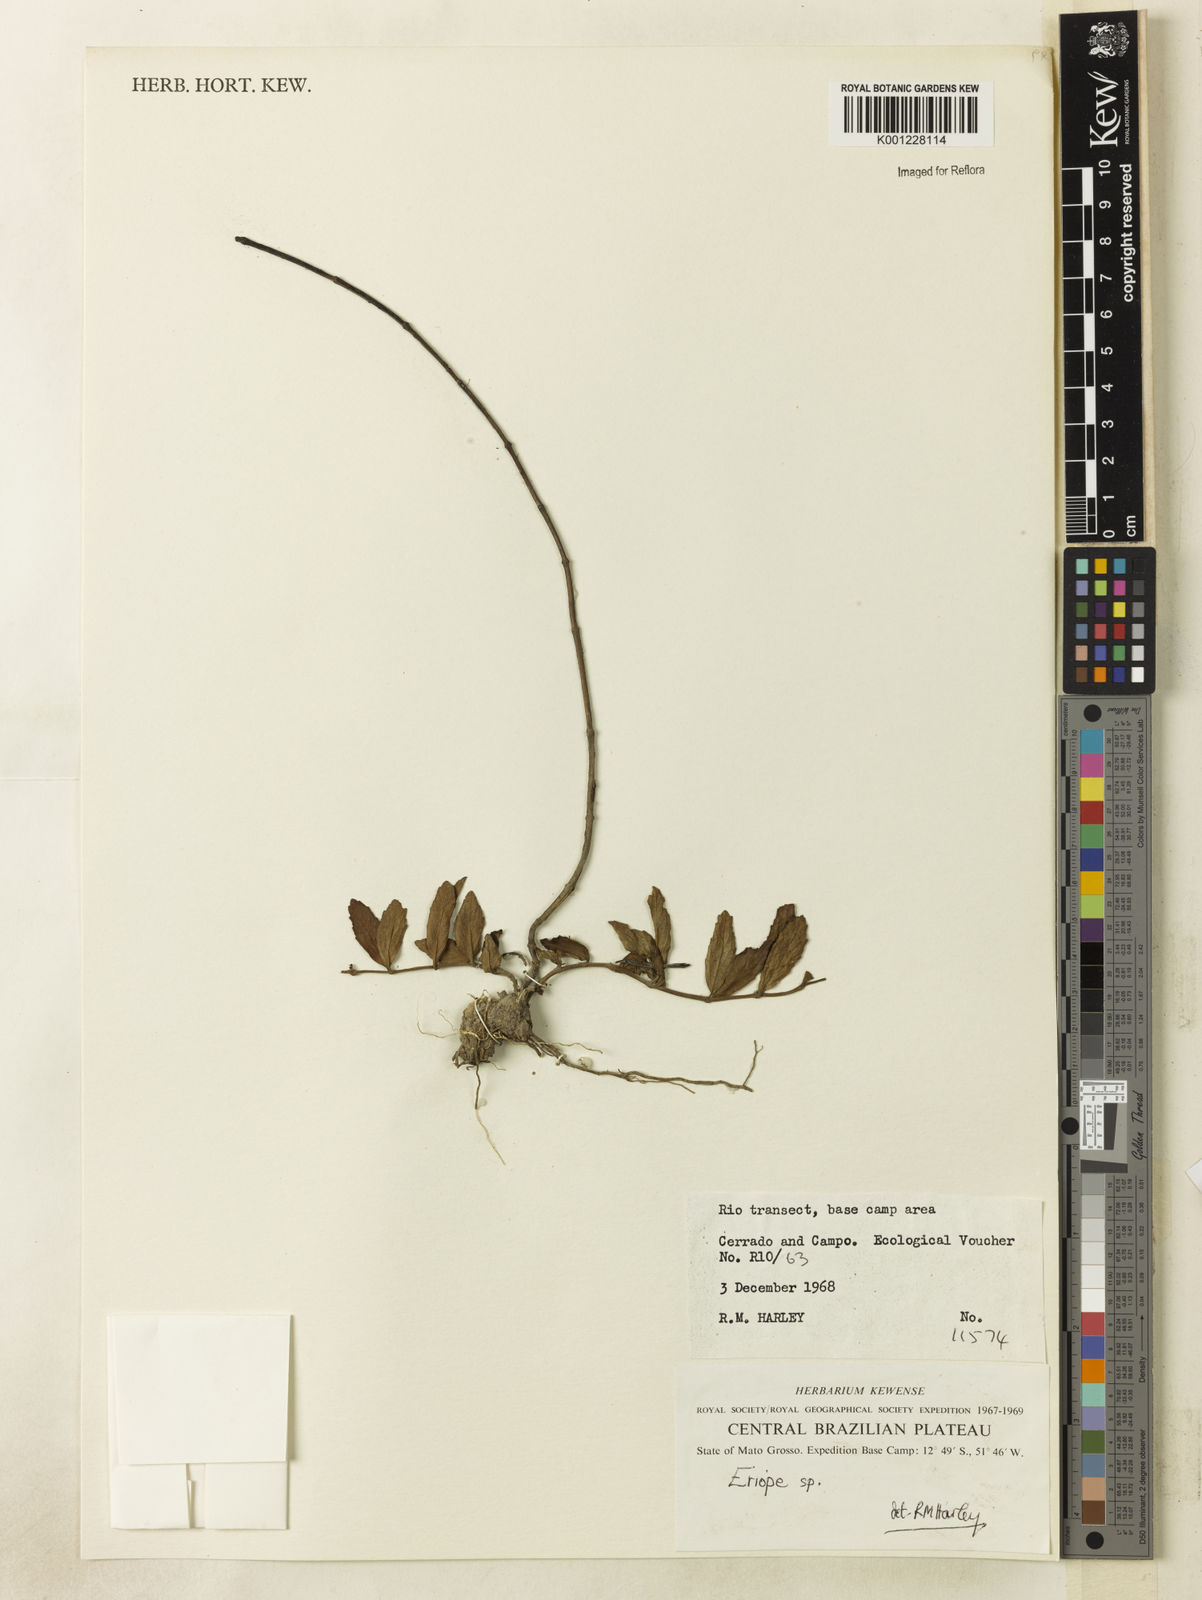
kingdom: Plantae
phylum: Tracheophyta
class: Magnoliopsida
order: Lamiales
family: Lamiaceae
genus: Eriope
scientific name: Eriope
